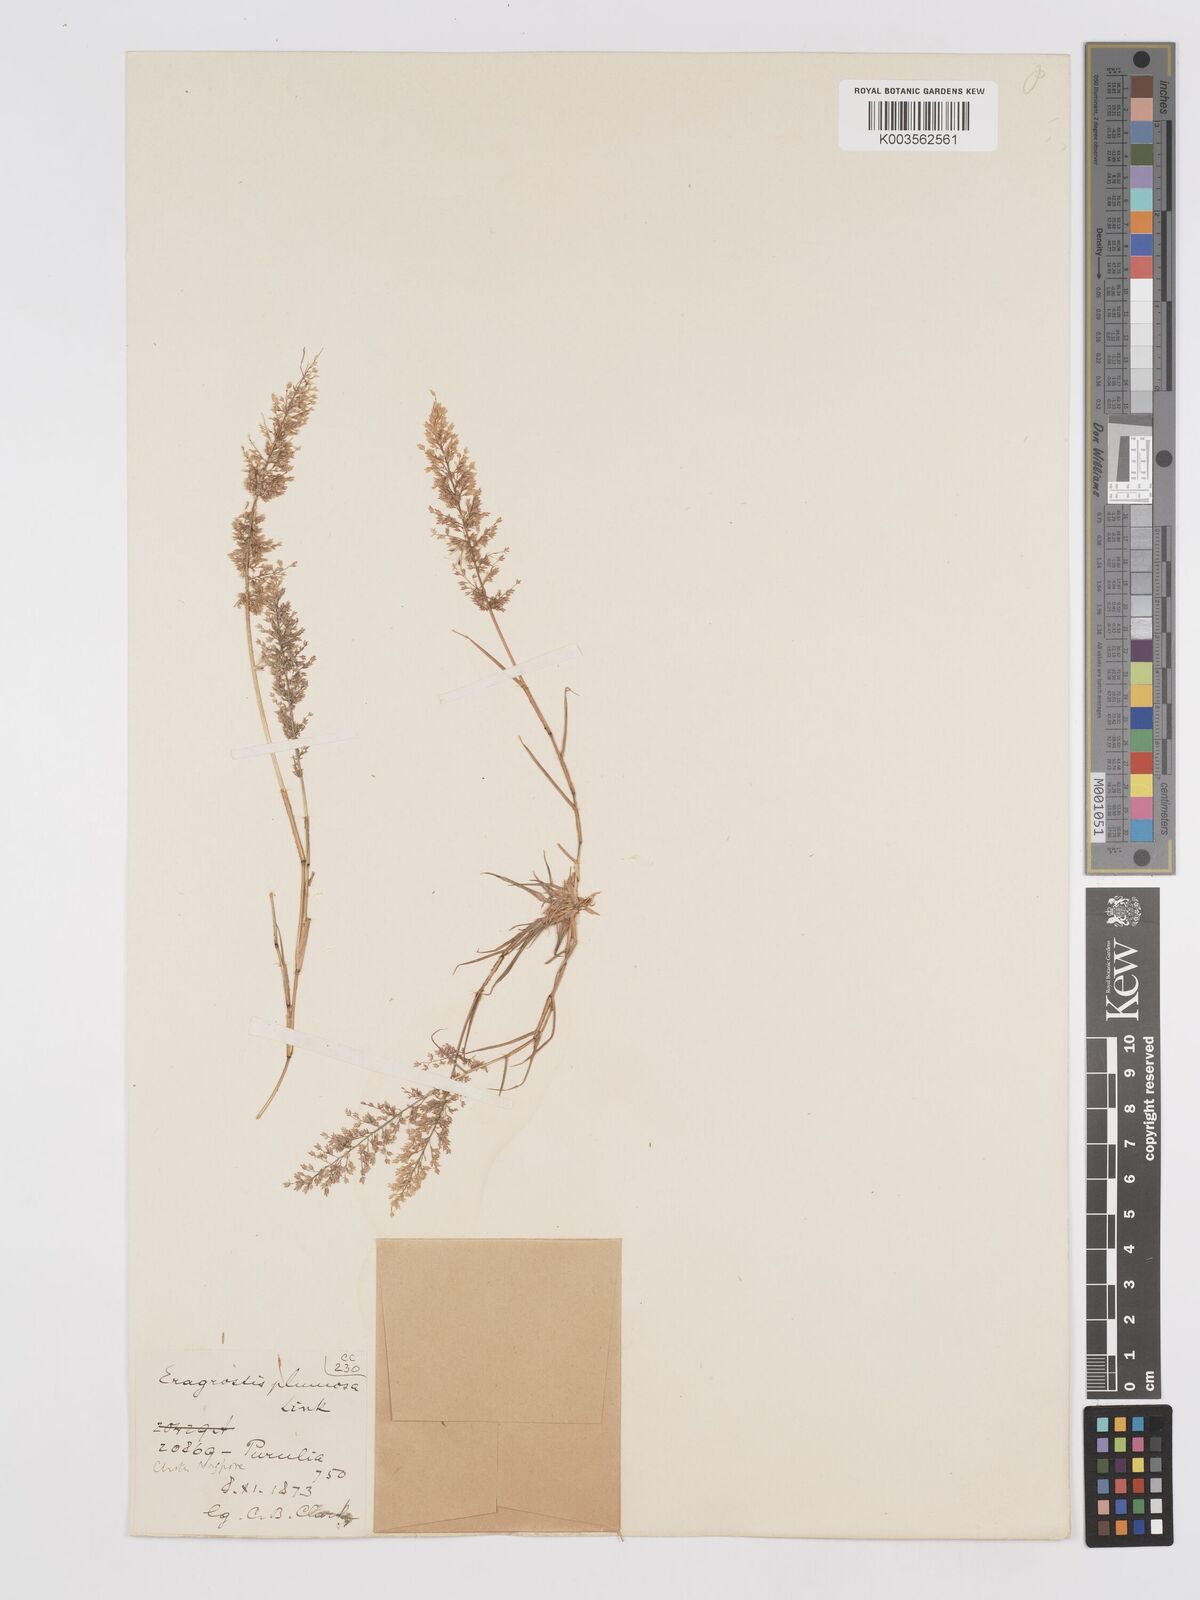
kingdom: Plantae
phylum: Tracheophyta
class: Liliopsida
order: Poales
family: Poaceae
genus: Eragrostis
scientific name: Eragrostis tenella
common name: Japanese lovegrass
